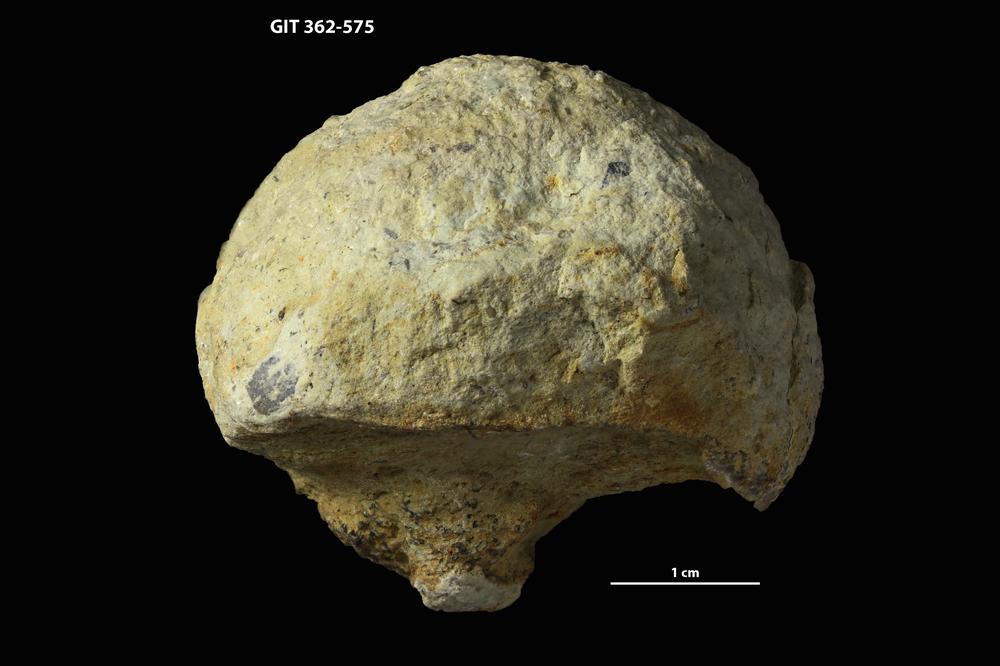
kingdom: Animalia
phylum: Bryozoa
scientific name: Bryozoa
